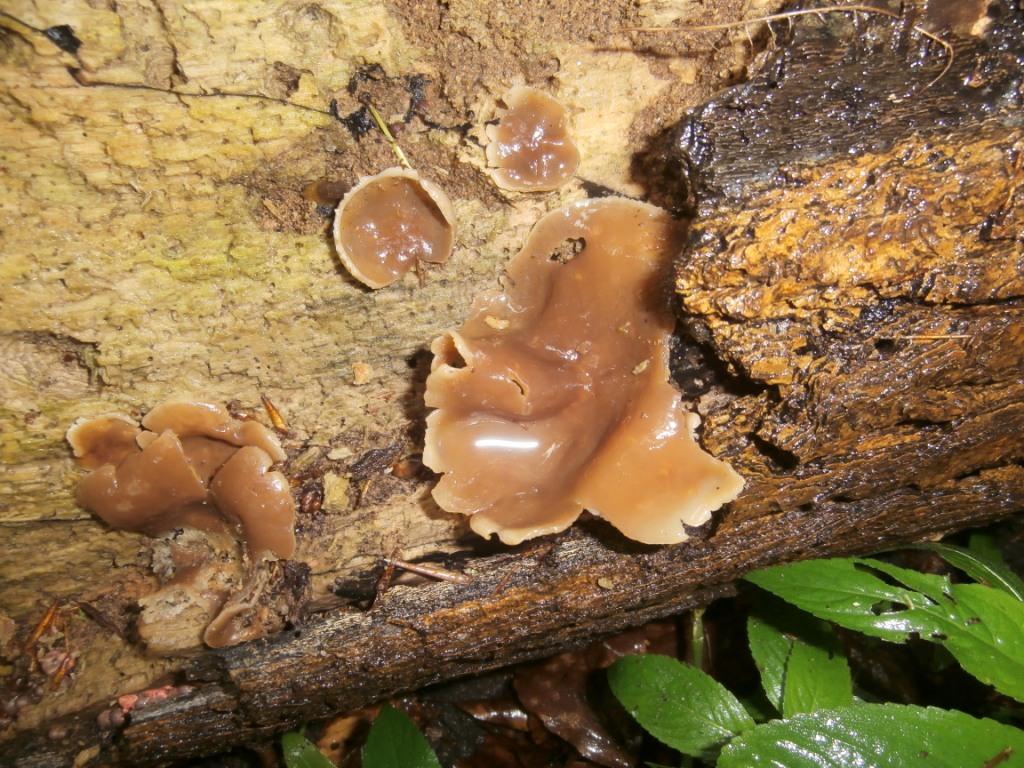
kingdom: Fungi
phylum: Ascomycota
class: Pezizomycetes
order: Pezizales
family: Pezizaceae
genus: Peziza
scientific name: Peziza varia
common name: Ved-bægersvamp
